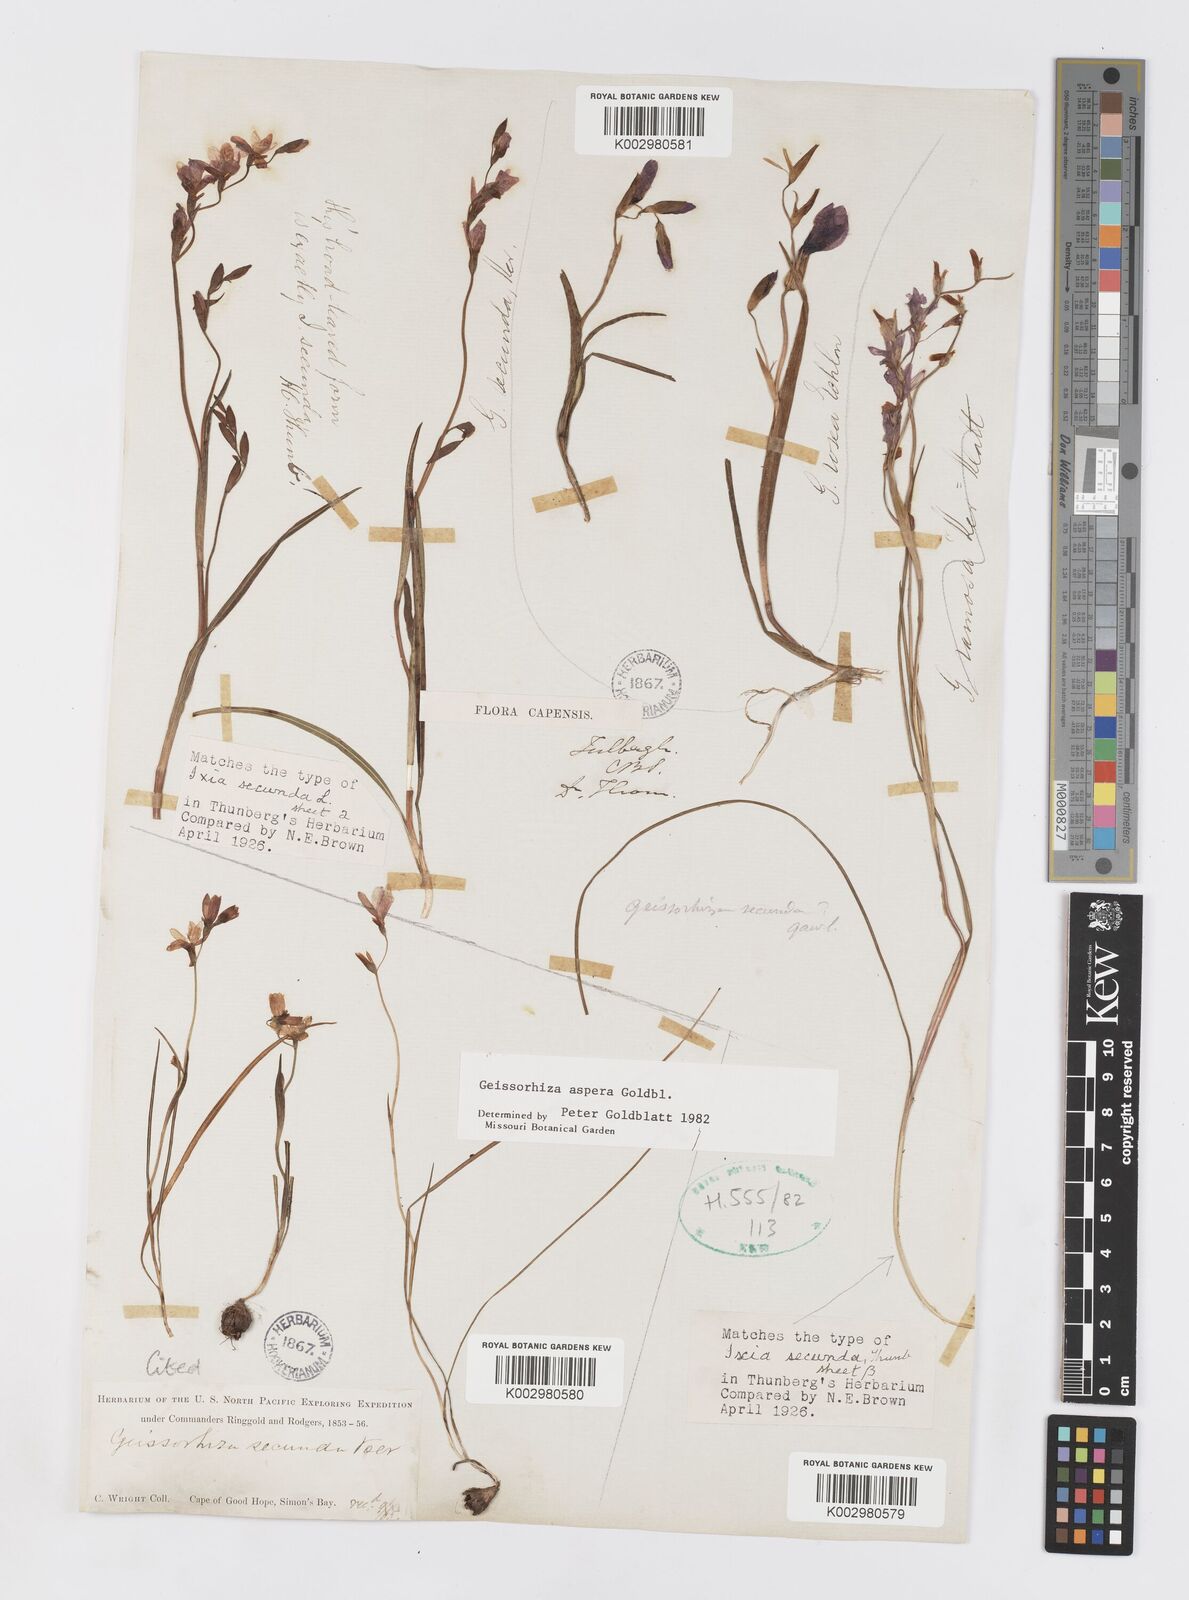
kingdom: Plantae
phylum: Tracheophyta
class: Liliopsida
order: Asparagales
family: Iridaceae
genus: Geissorhiza
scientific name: Geissorhiza aspera
